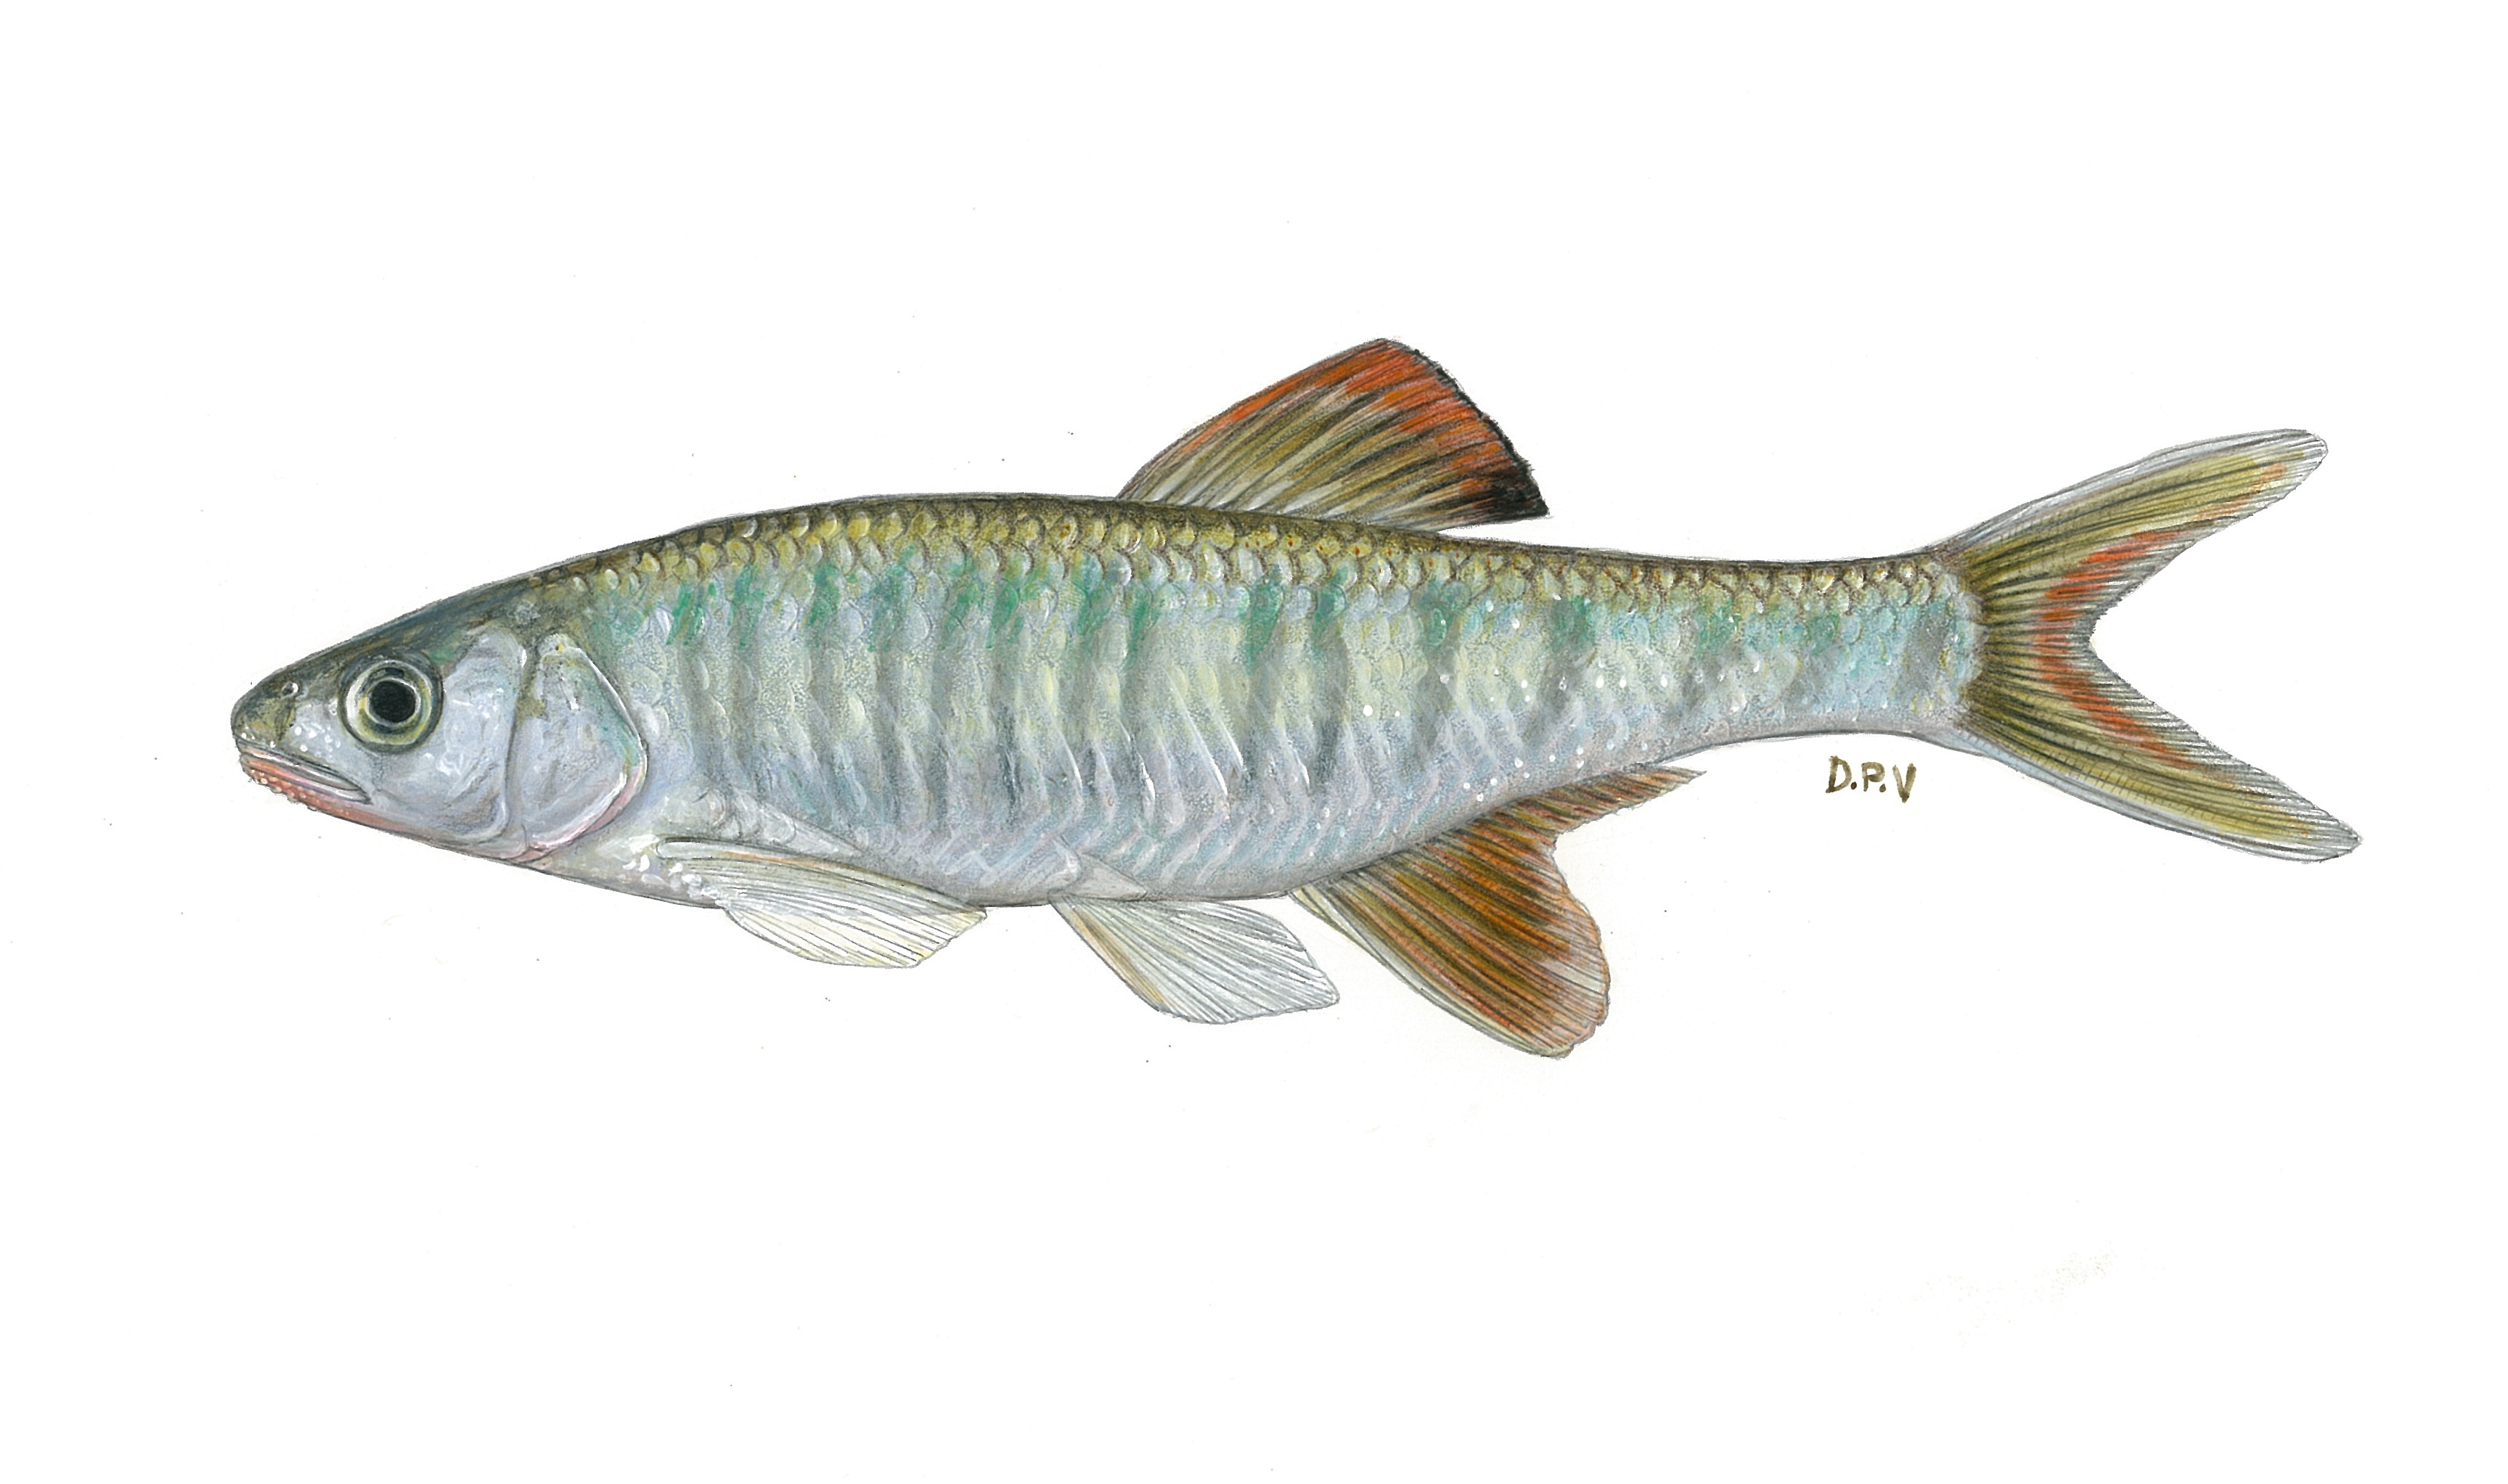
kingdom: Animalia
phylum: Chordata
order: Cypriniformes
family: Cyprinidae
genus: Opsaridium
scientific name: Opsaridium peringueyi
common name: Southern barred minnow
